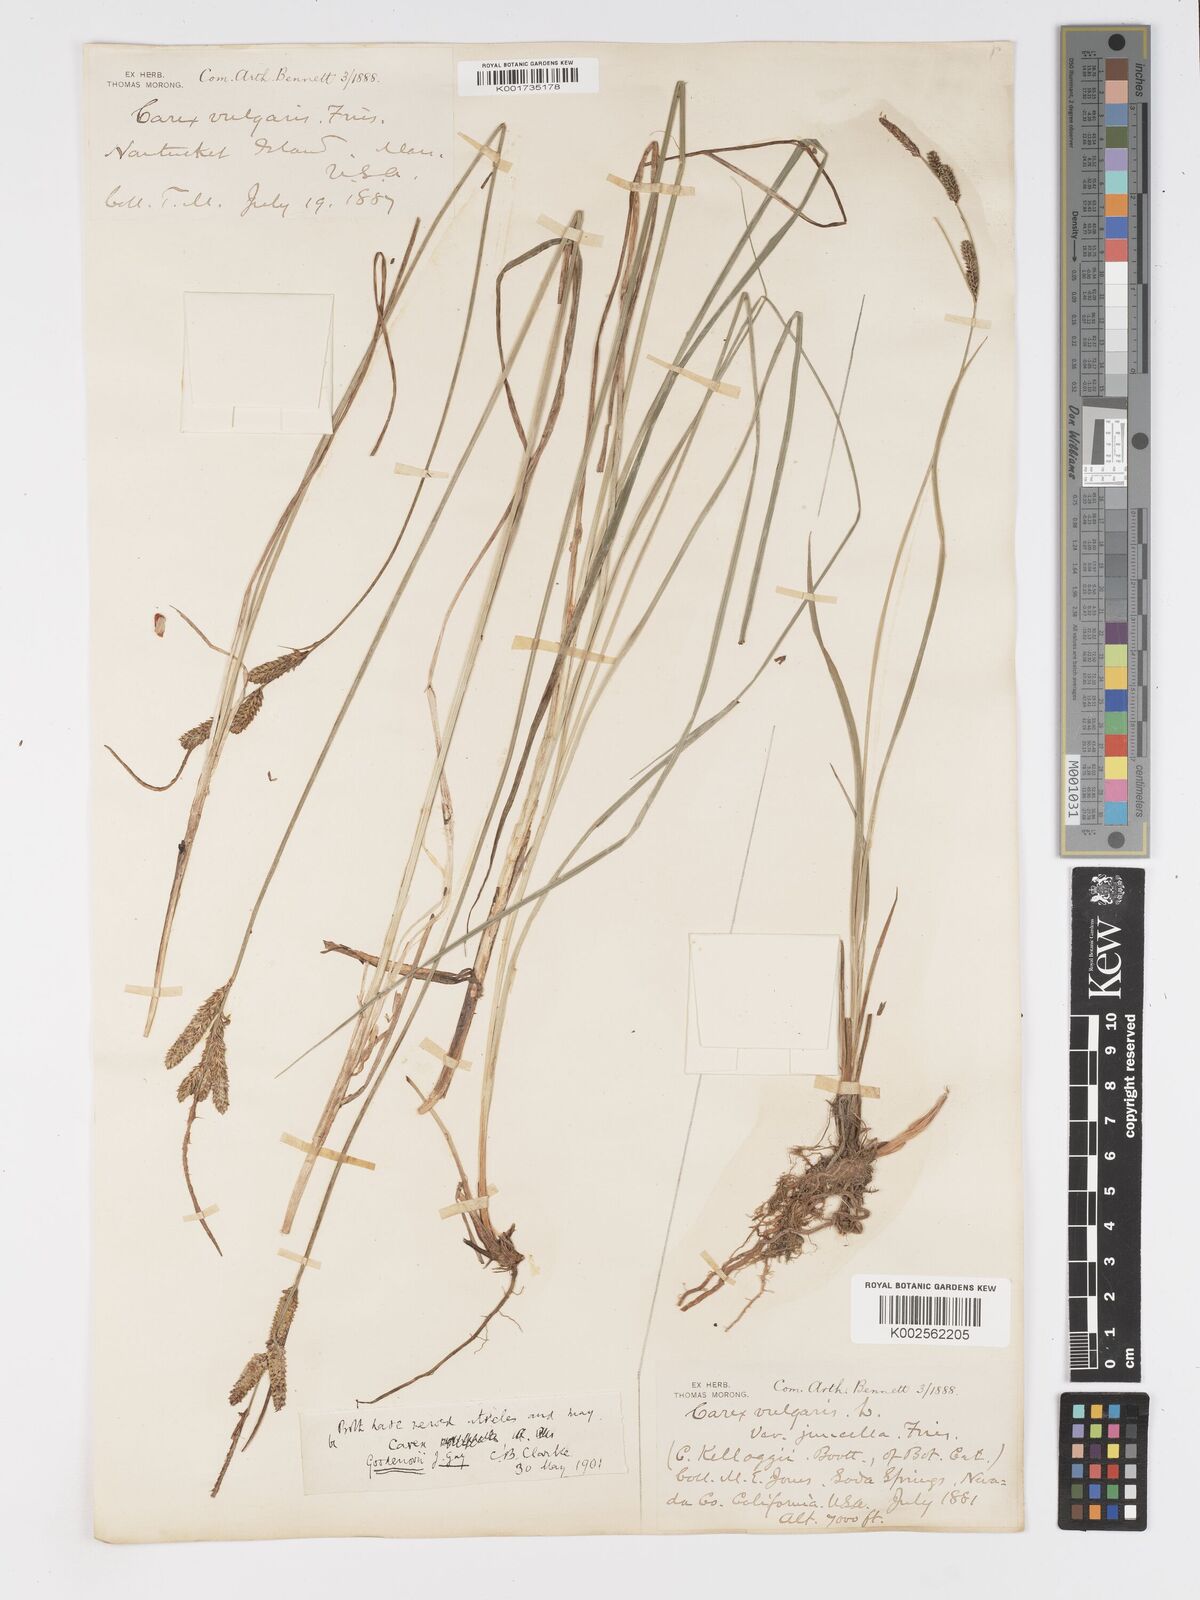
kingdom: Plantae
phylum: Tracheophyta
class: Liliopsida
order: Poales
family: Cyperaceae
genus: Carex
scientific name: Carex nigra
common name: Common sedge
